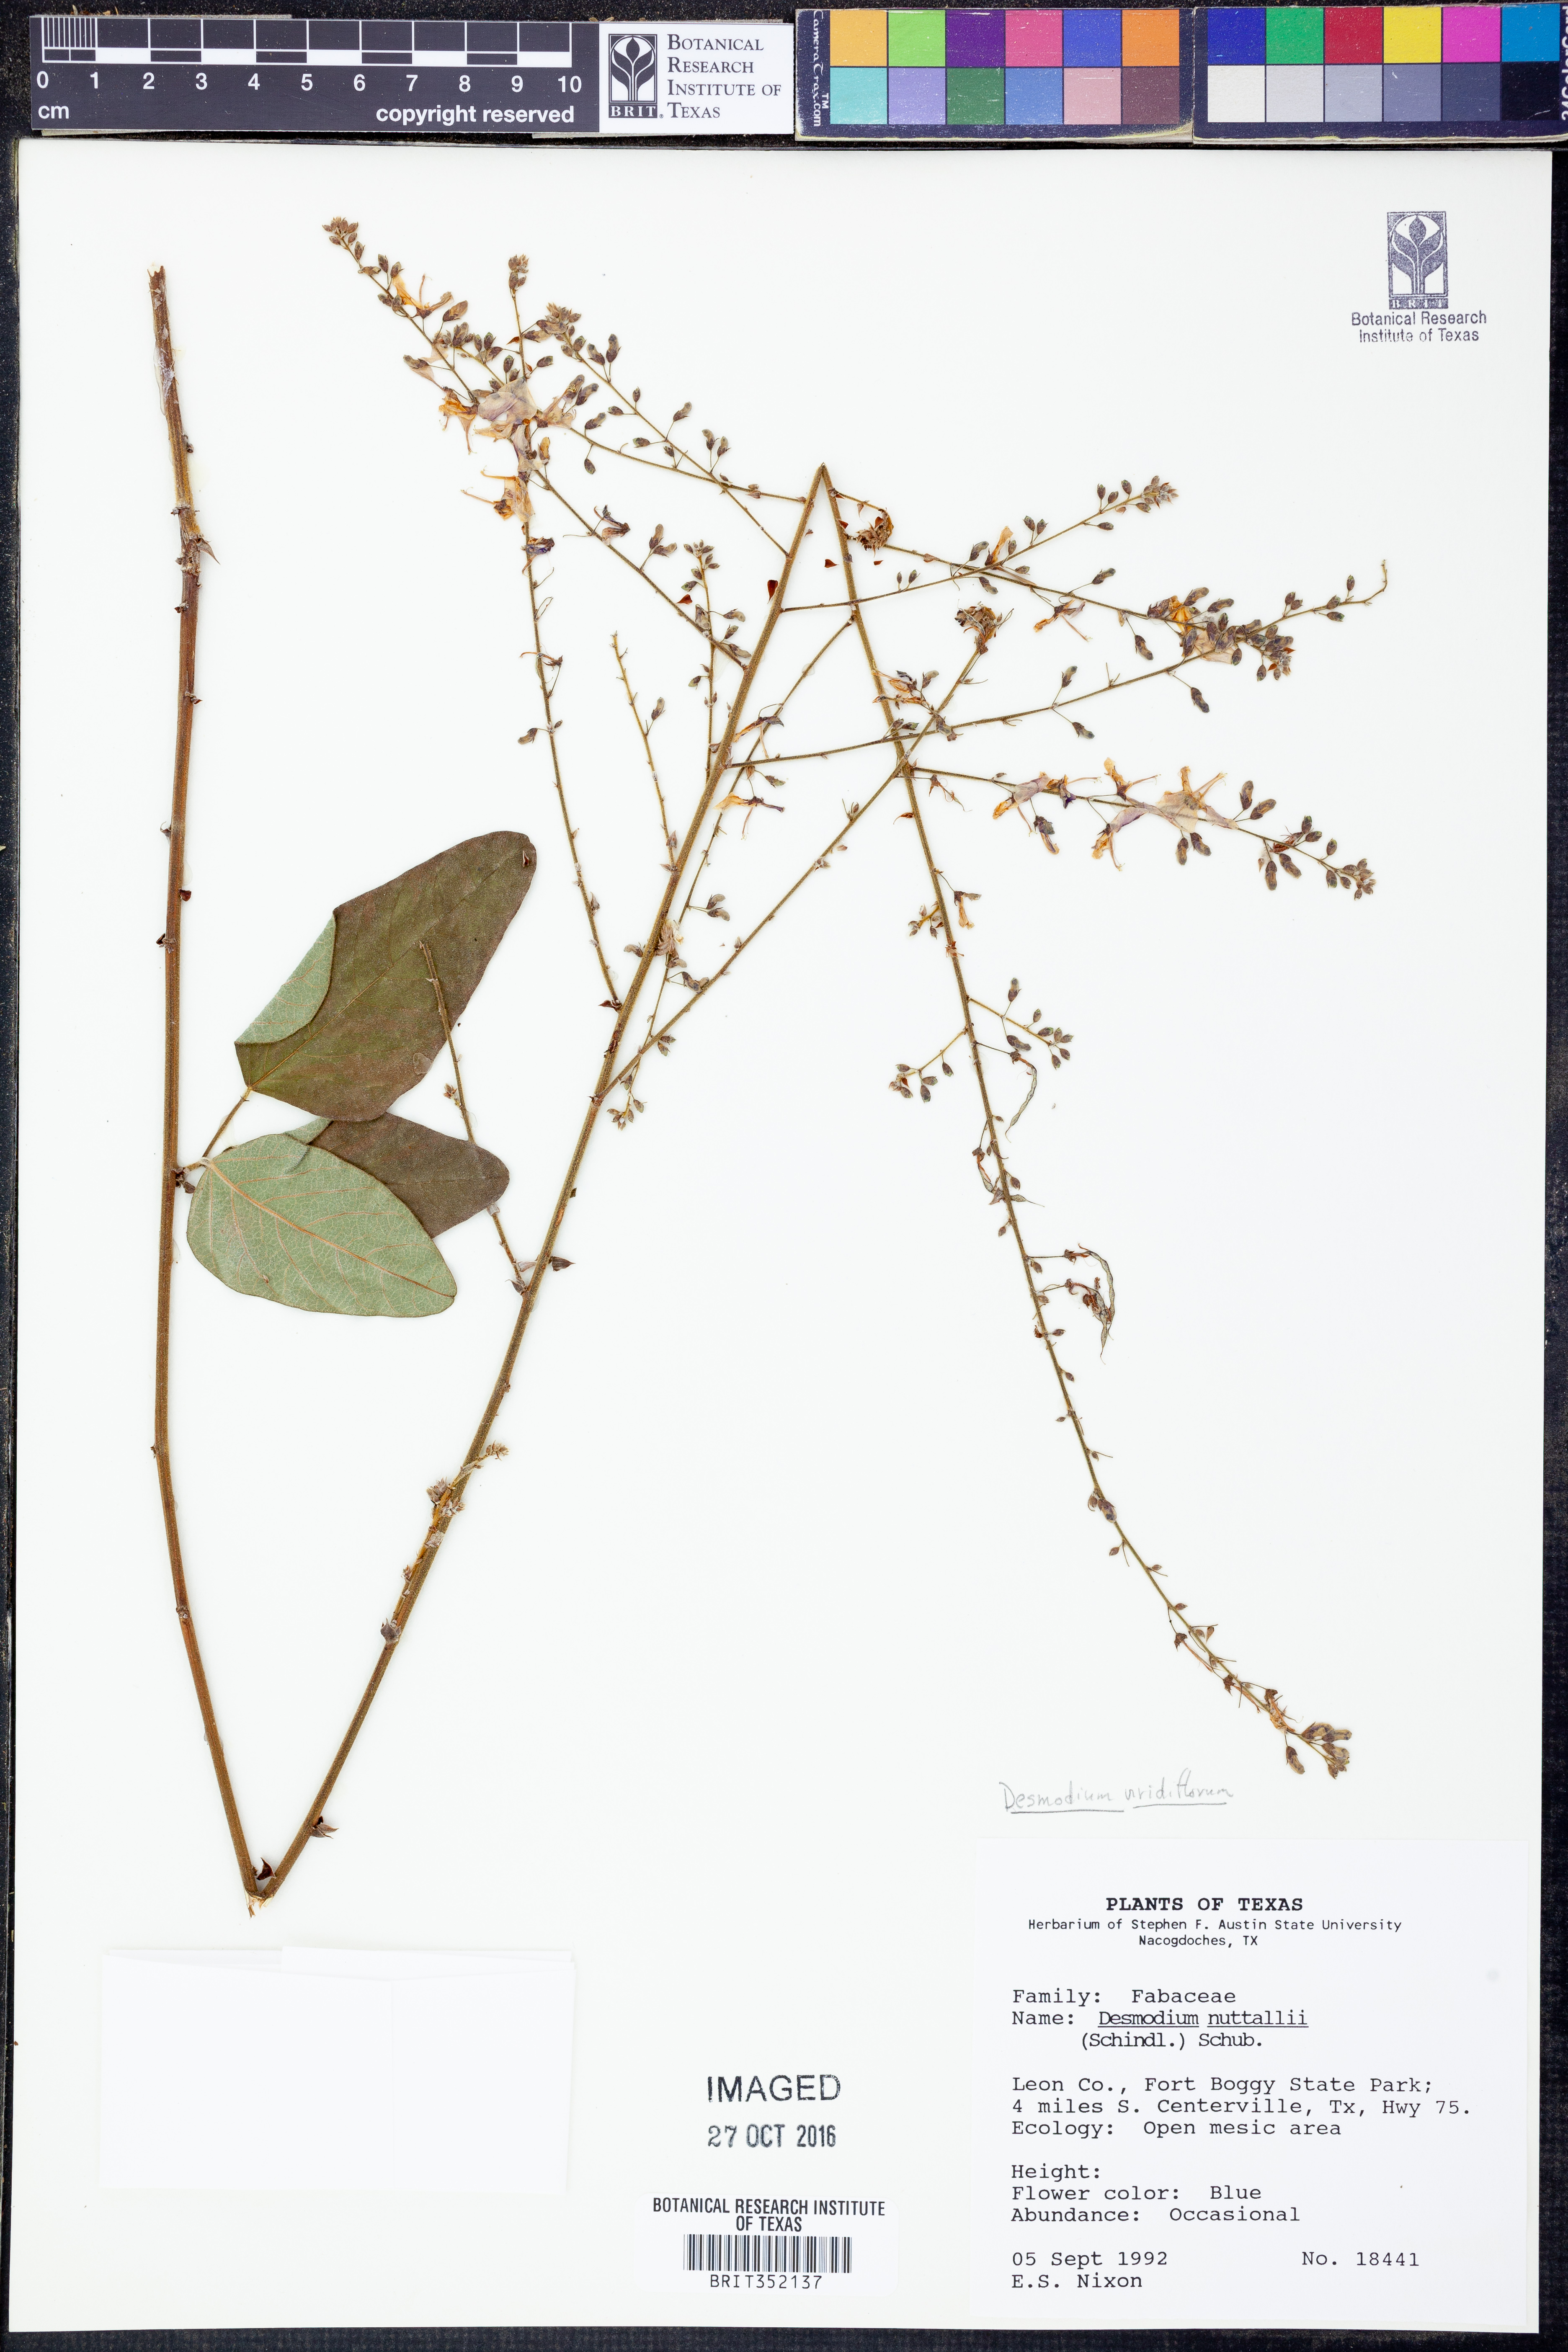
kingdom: Plantae
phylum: Tracheophyta
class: Magnoliopsida
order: Fabales
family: Fabaceae
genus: Desmodium
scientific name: Desmodium viridiflorum
